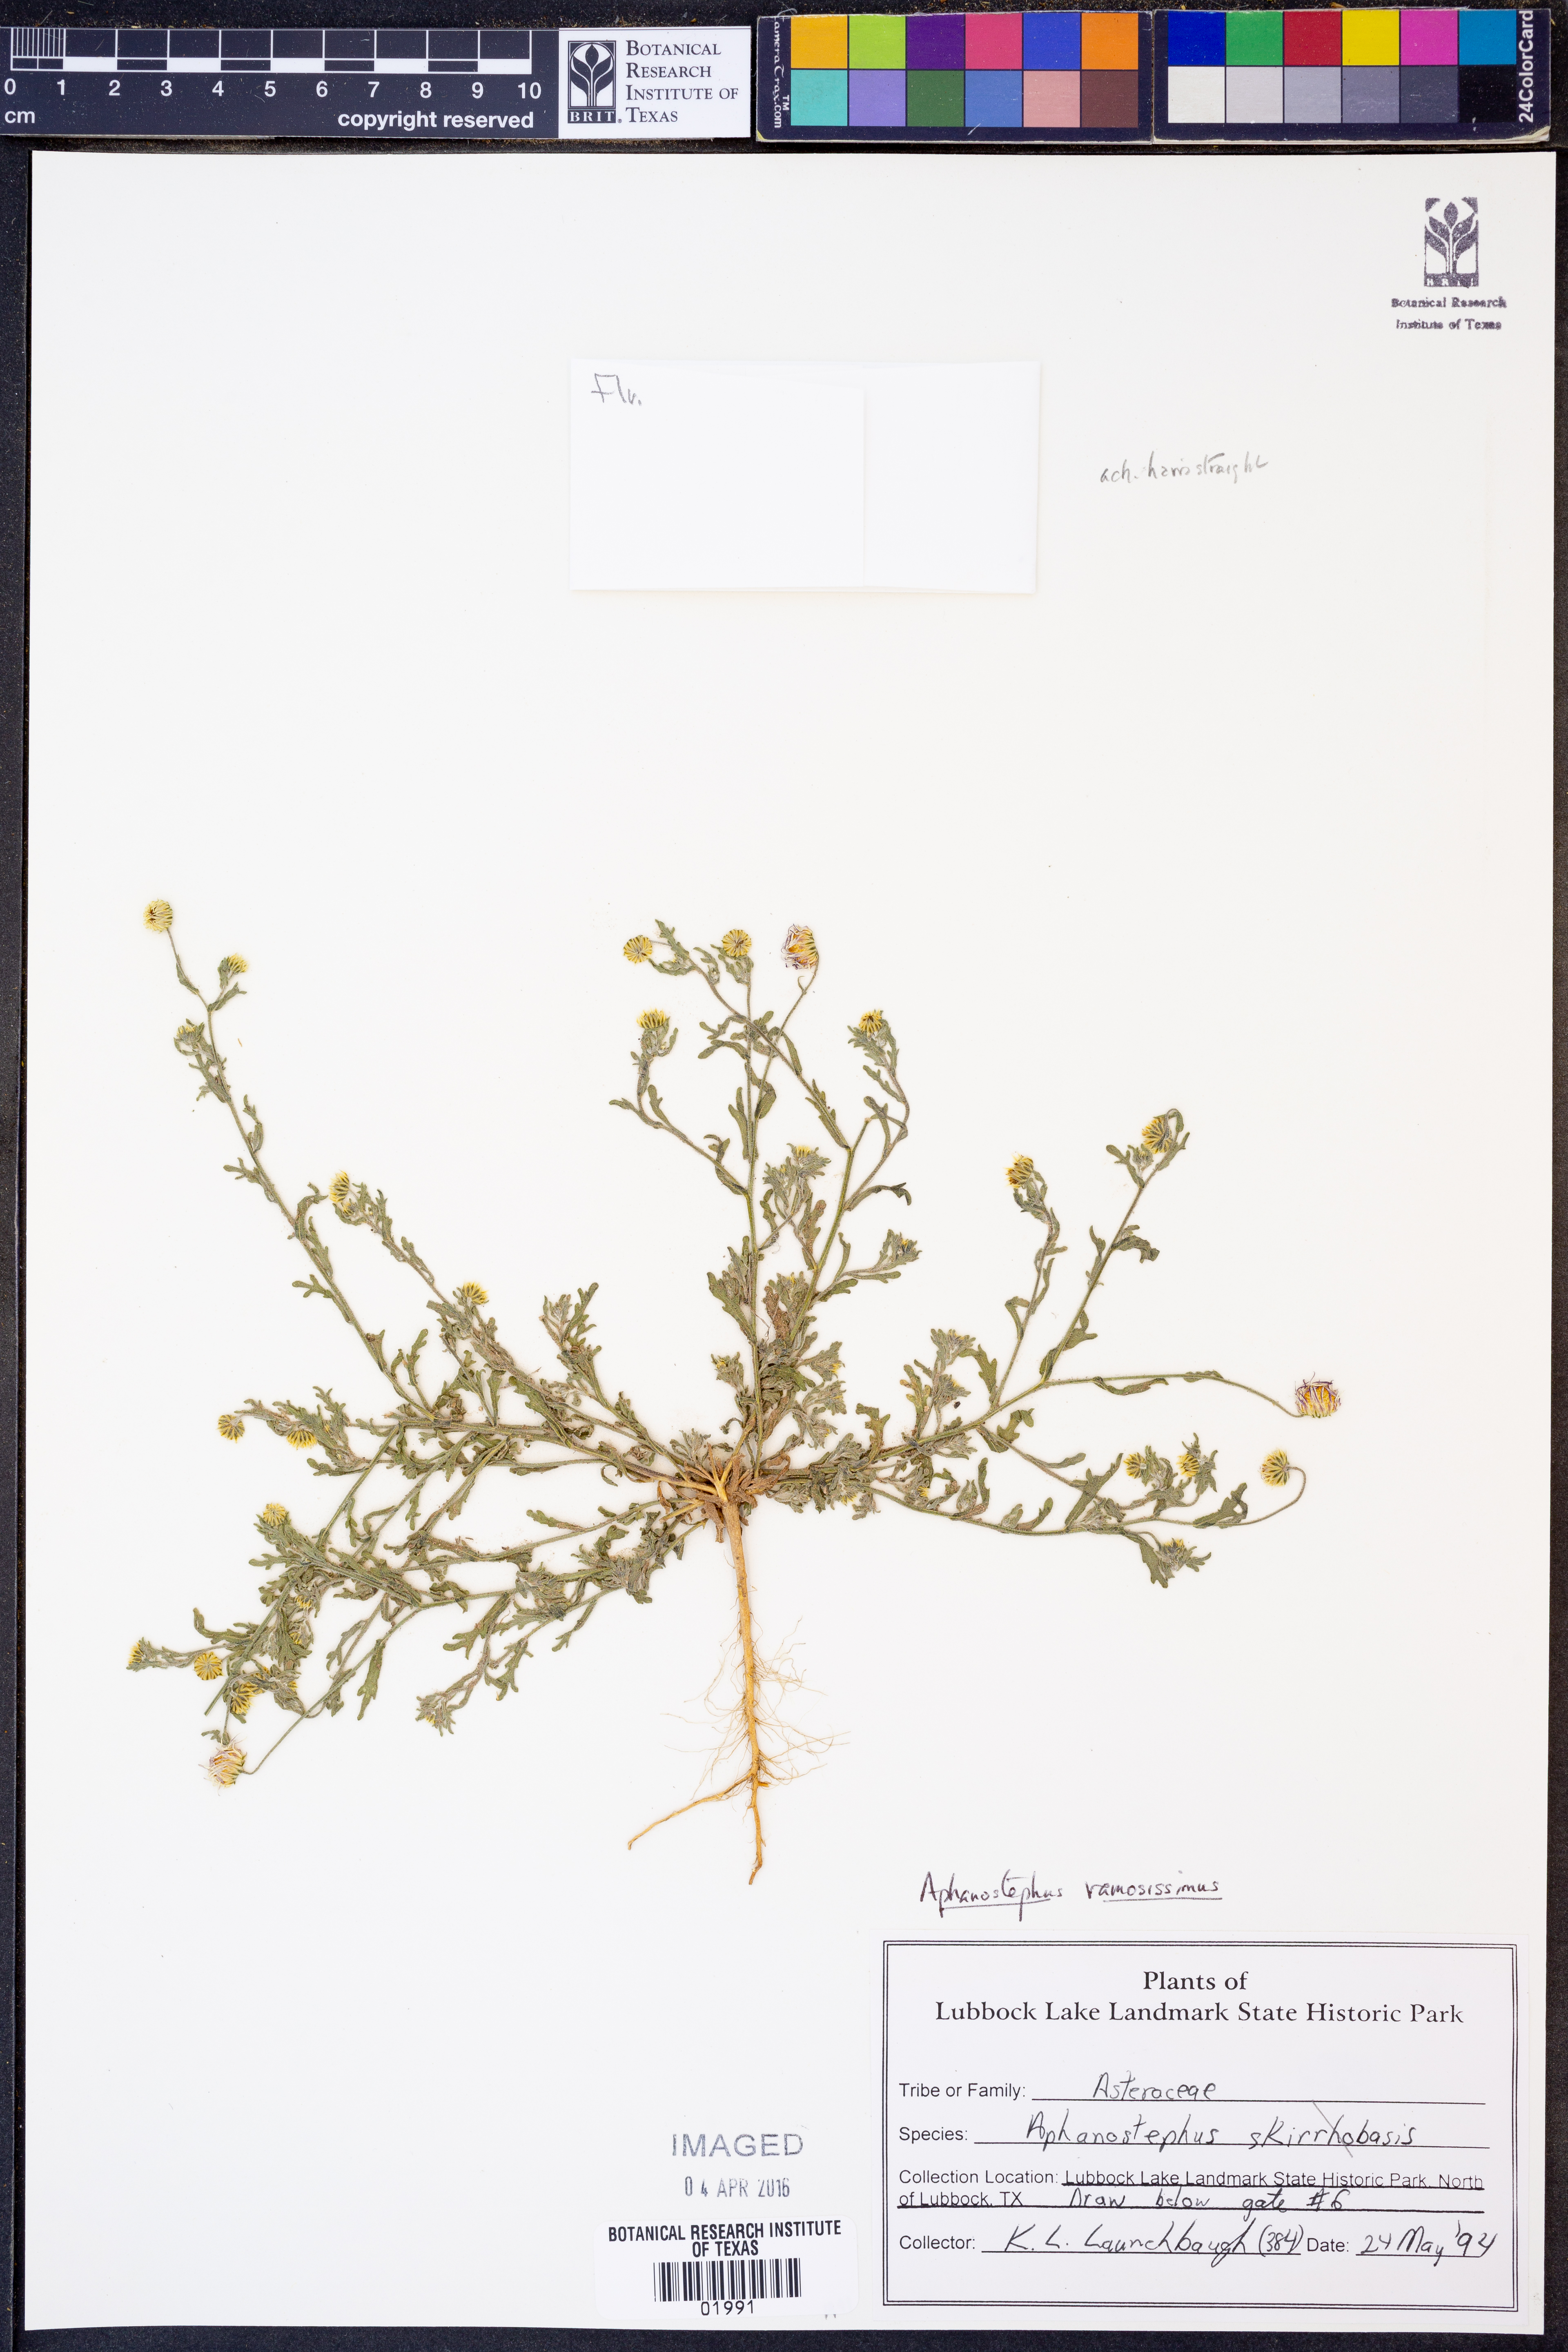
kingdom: Plantae
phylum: Tracheophyta
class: Magnoliopsida
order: Asterales
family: Asteraceae
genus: Aphanostephus
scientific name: Aphanostephus ramosissimus
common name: Plains lazy daisy
